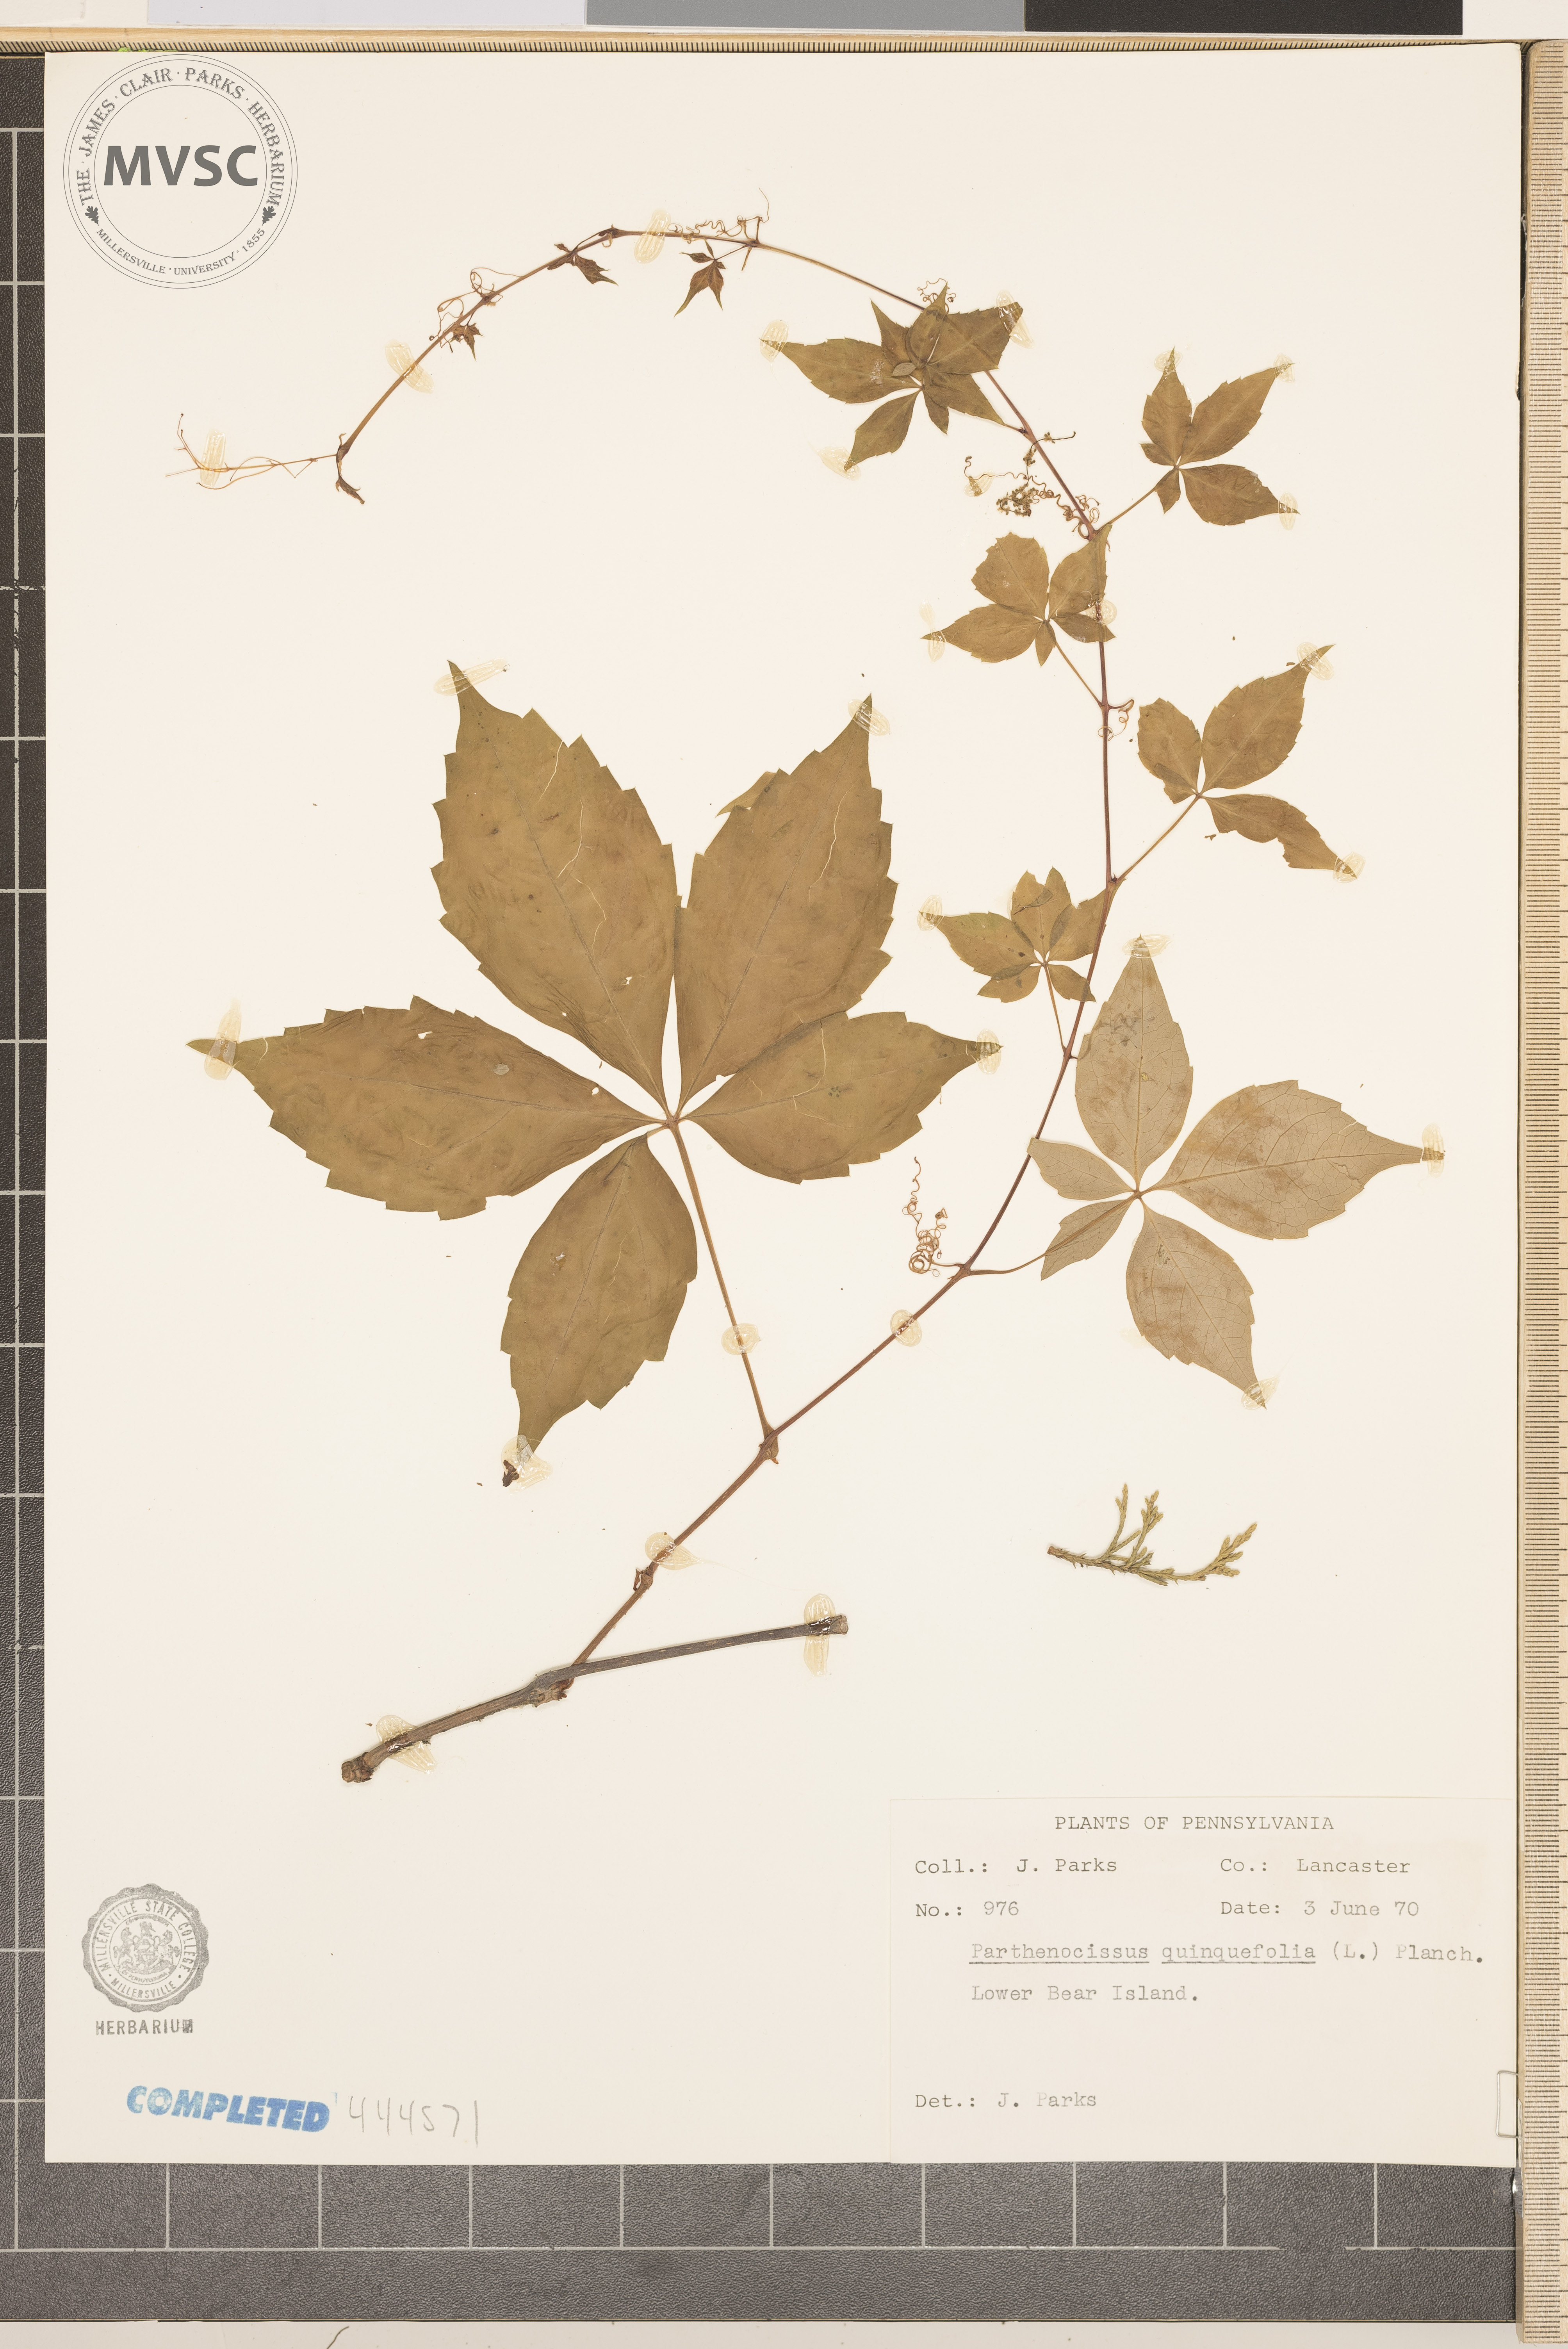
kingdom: Plantae
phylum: Tracheophyta
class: Magnoliopsida
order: Vitales
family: Vitaceae
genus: Parthenocissus
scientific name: Parthenocissus quinquefolia
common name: Virginia-creeper
